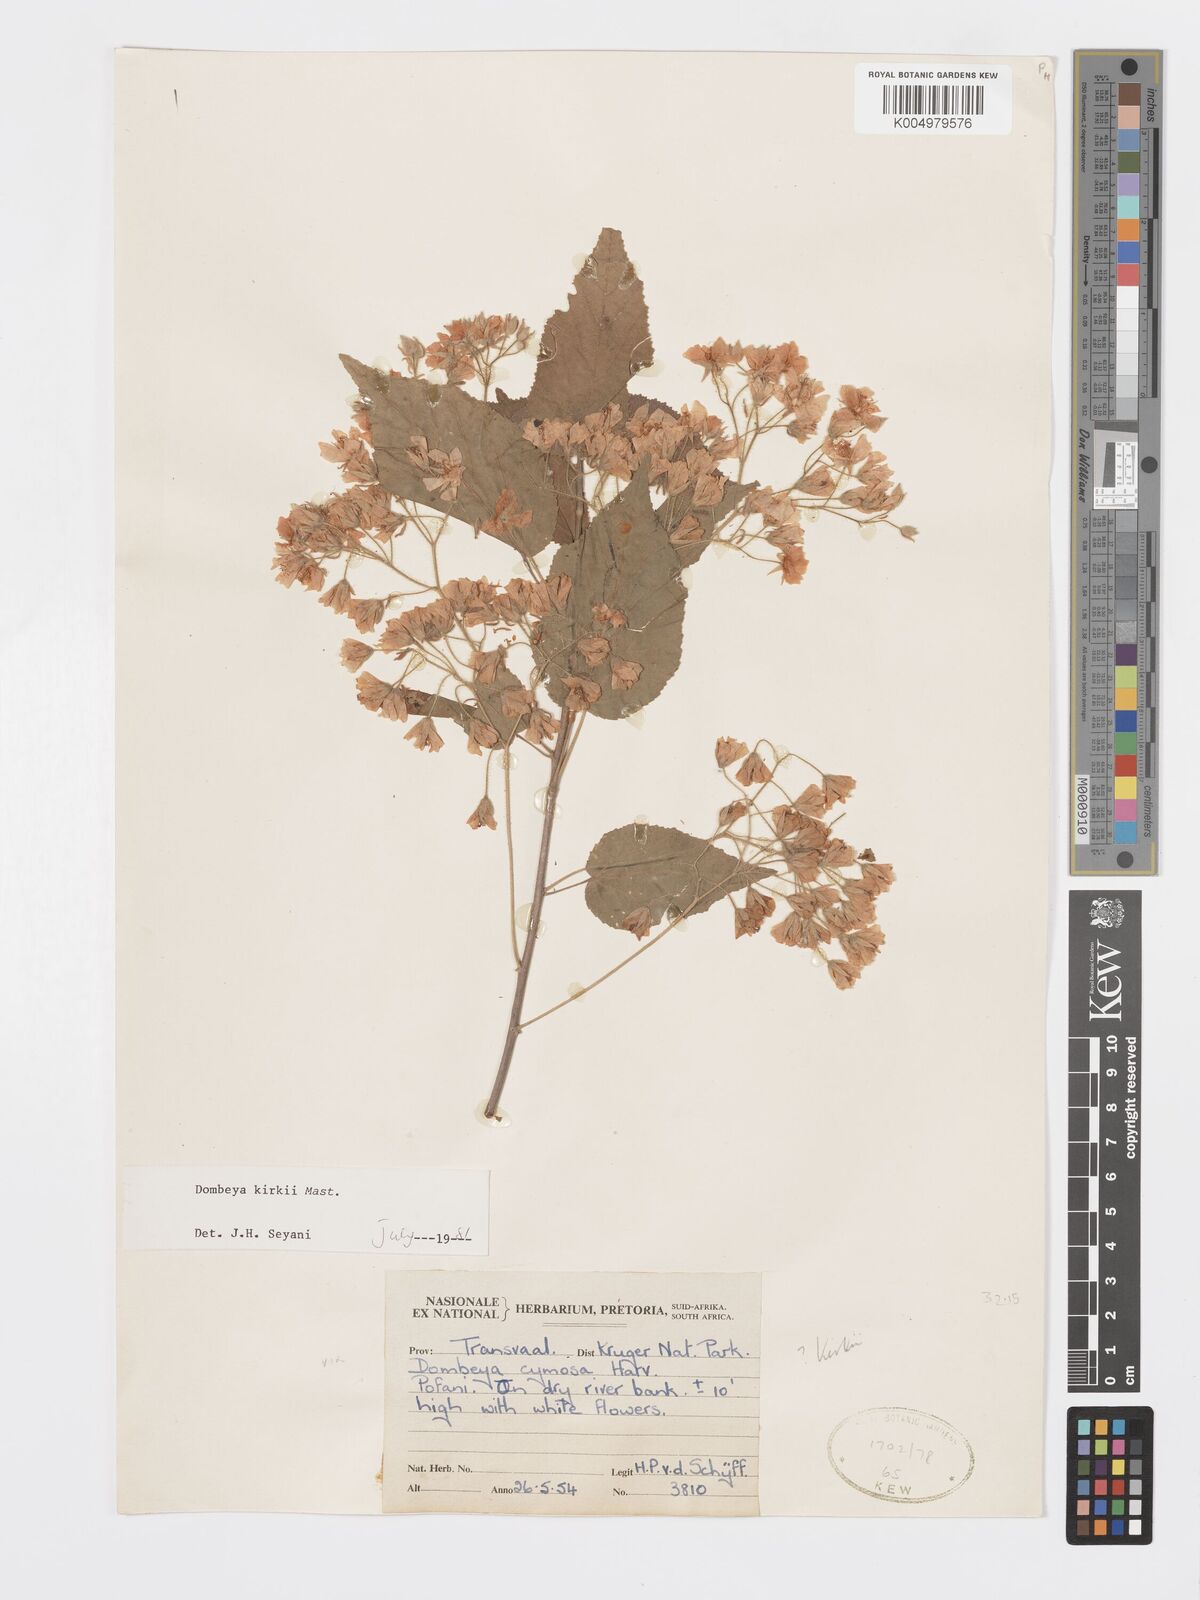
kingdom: Plantae
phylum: Tracheophyta
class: Magnoliopsida
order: Malvales
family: Malvaceae
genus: Dombeya
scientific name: Dombeya kirkii
